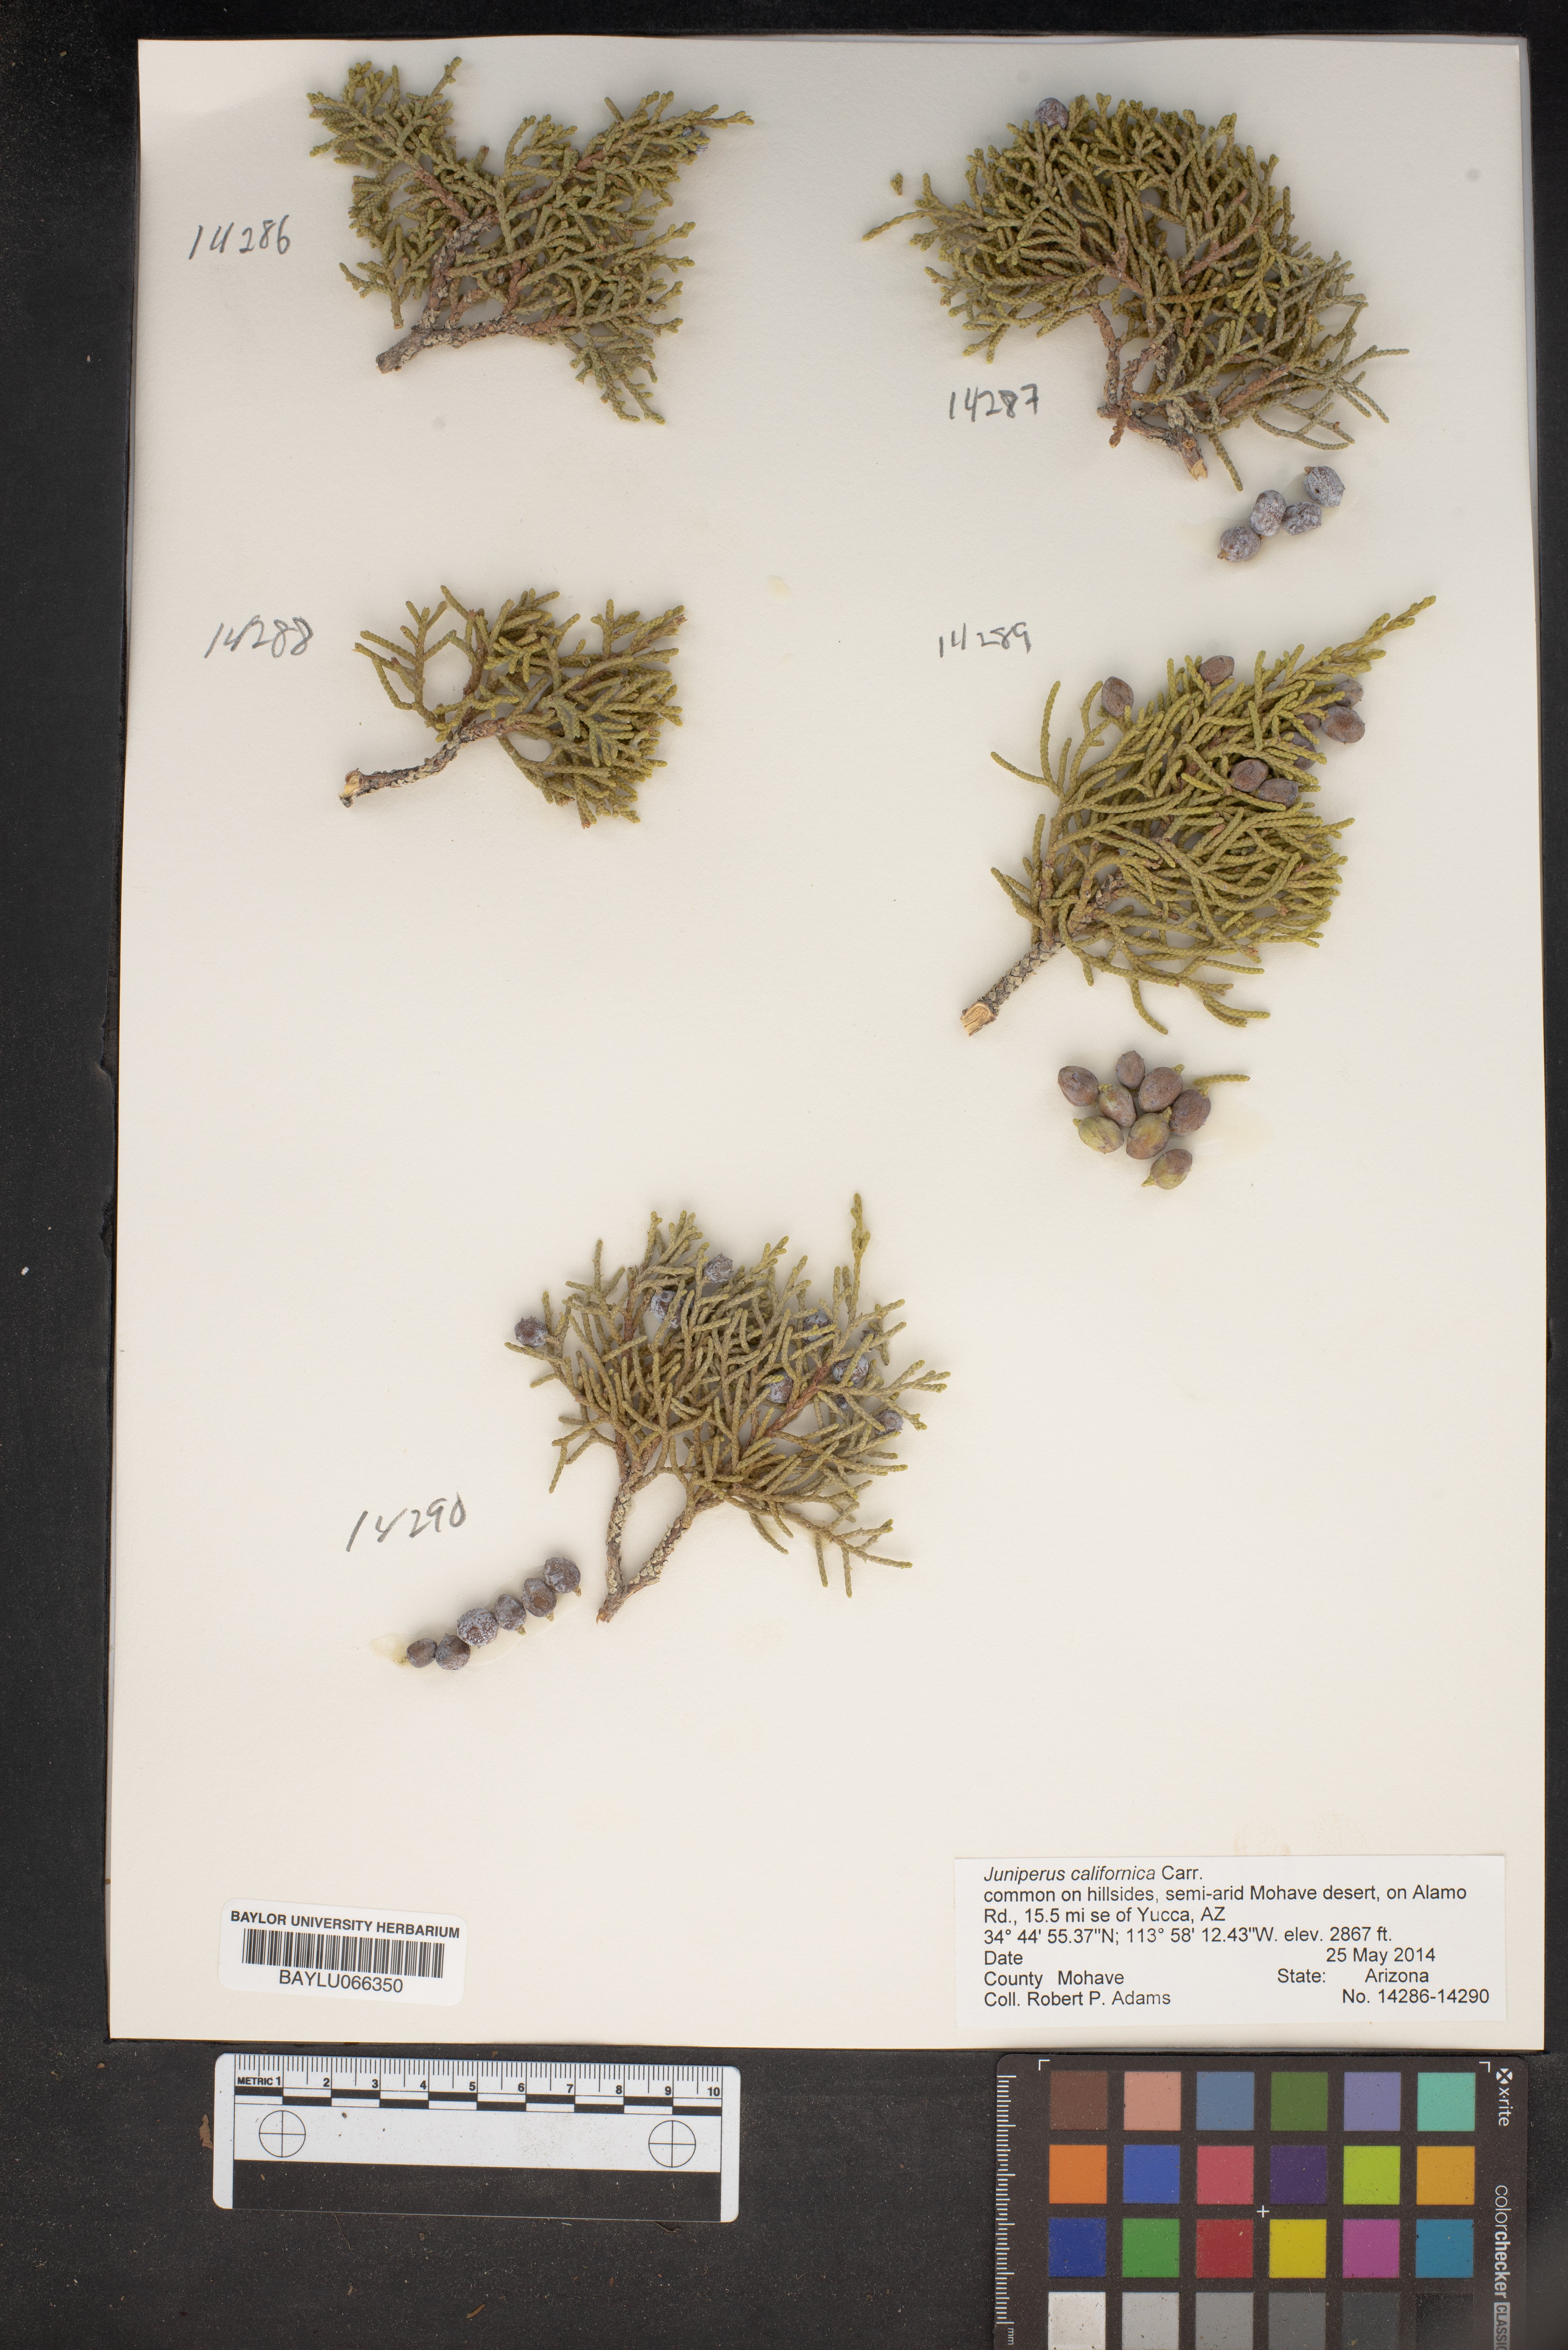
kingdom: Plantae
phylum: Tracheophyta
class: Pinopsida
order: Pinales
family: Cupressaceae
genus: Juniperus
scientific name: Juniperus californica
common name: California juniper
